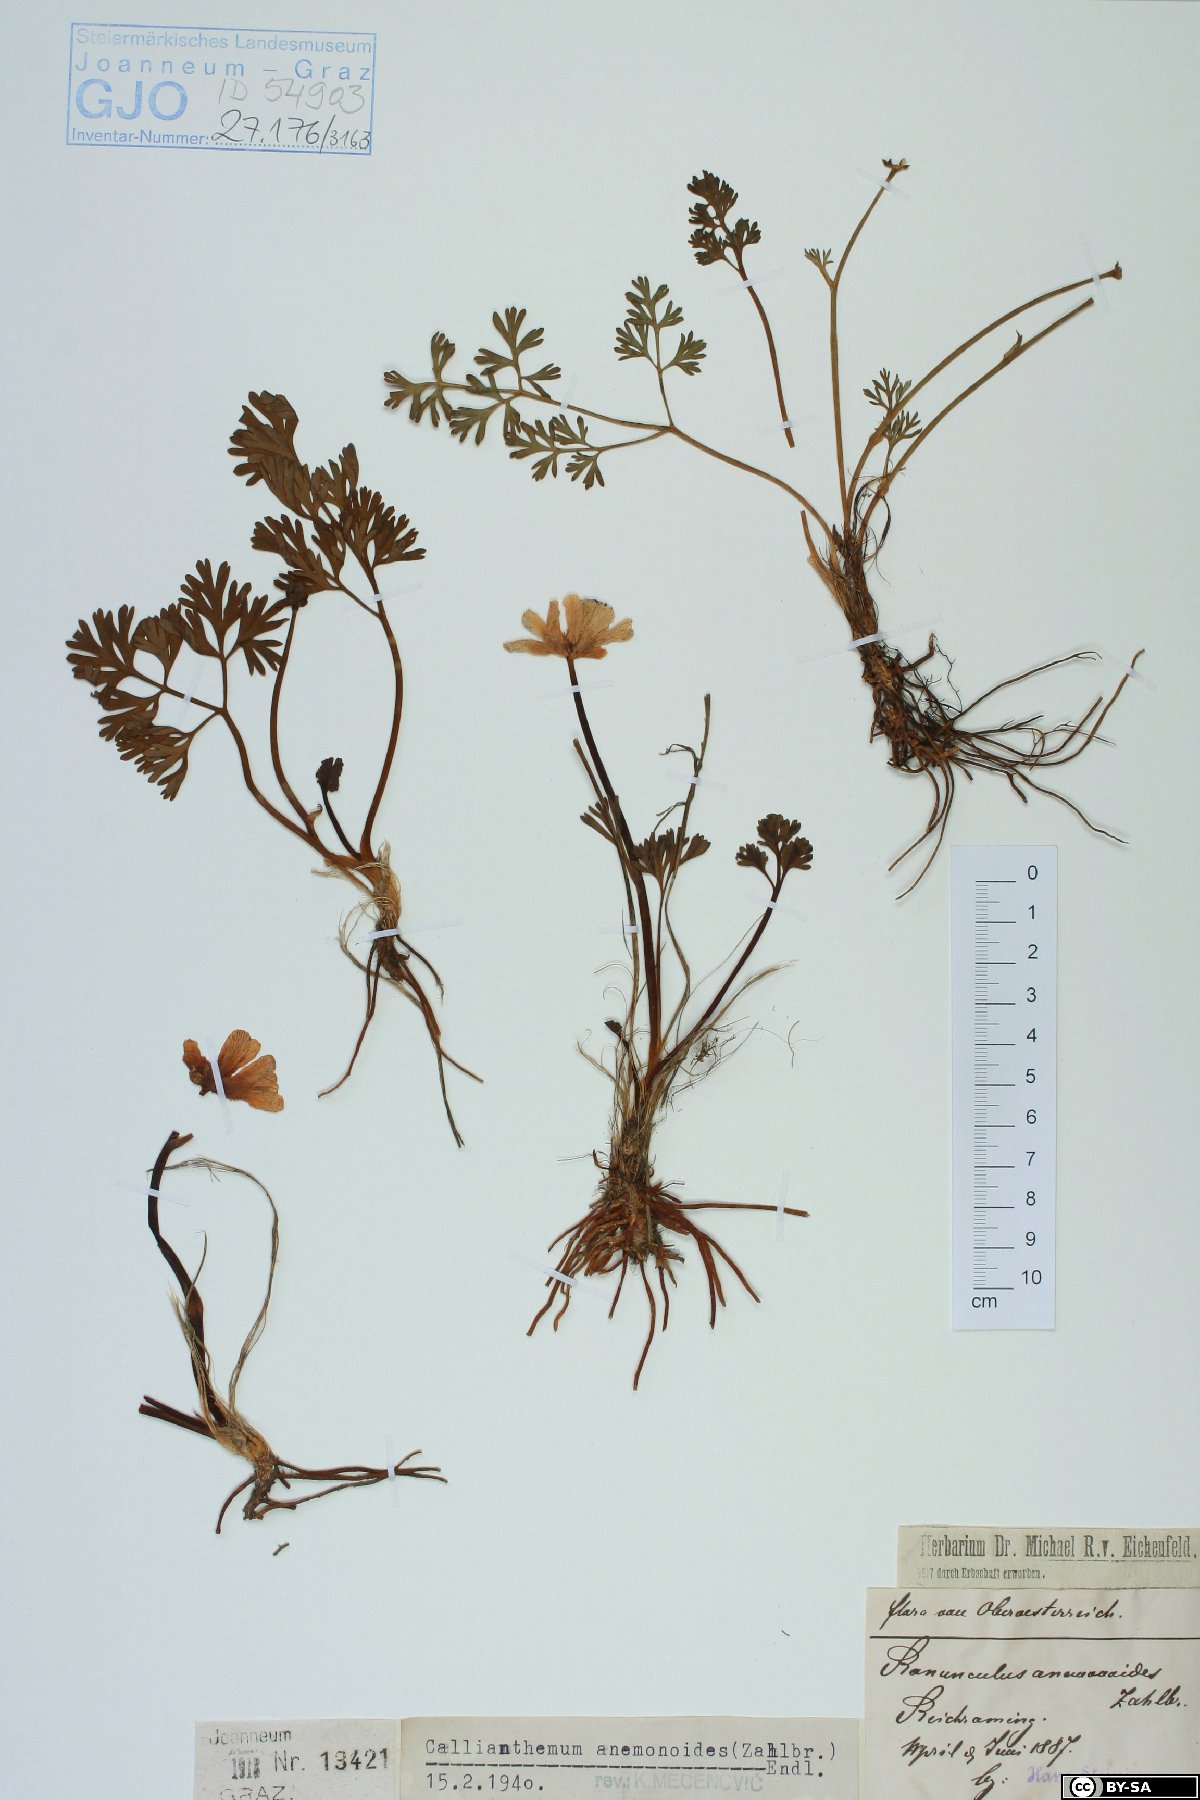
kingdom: Plantae
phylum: Tracheophyta
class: Magnoliopsida
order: Ranunculales
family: Ranunculaceae
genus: Callianthemum
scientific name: Callianthemum anemonoides
